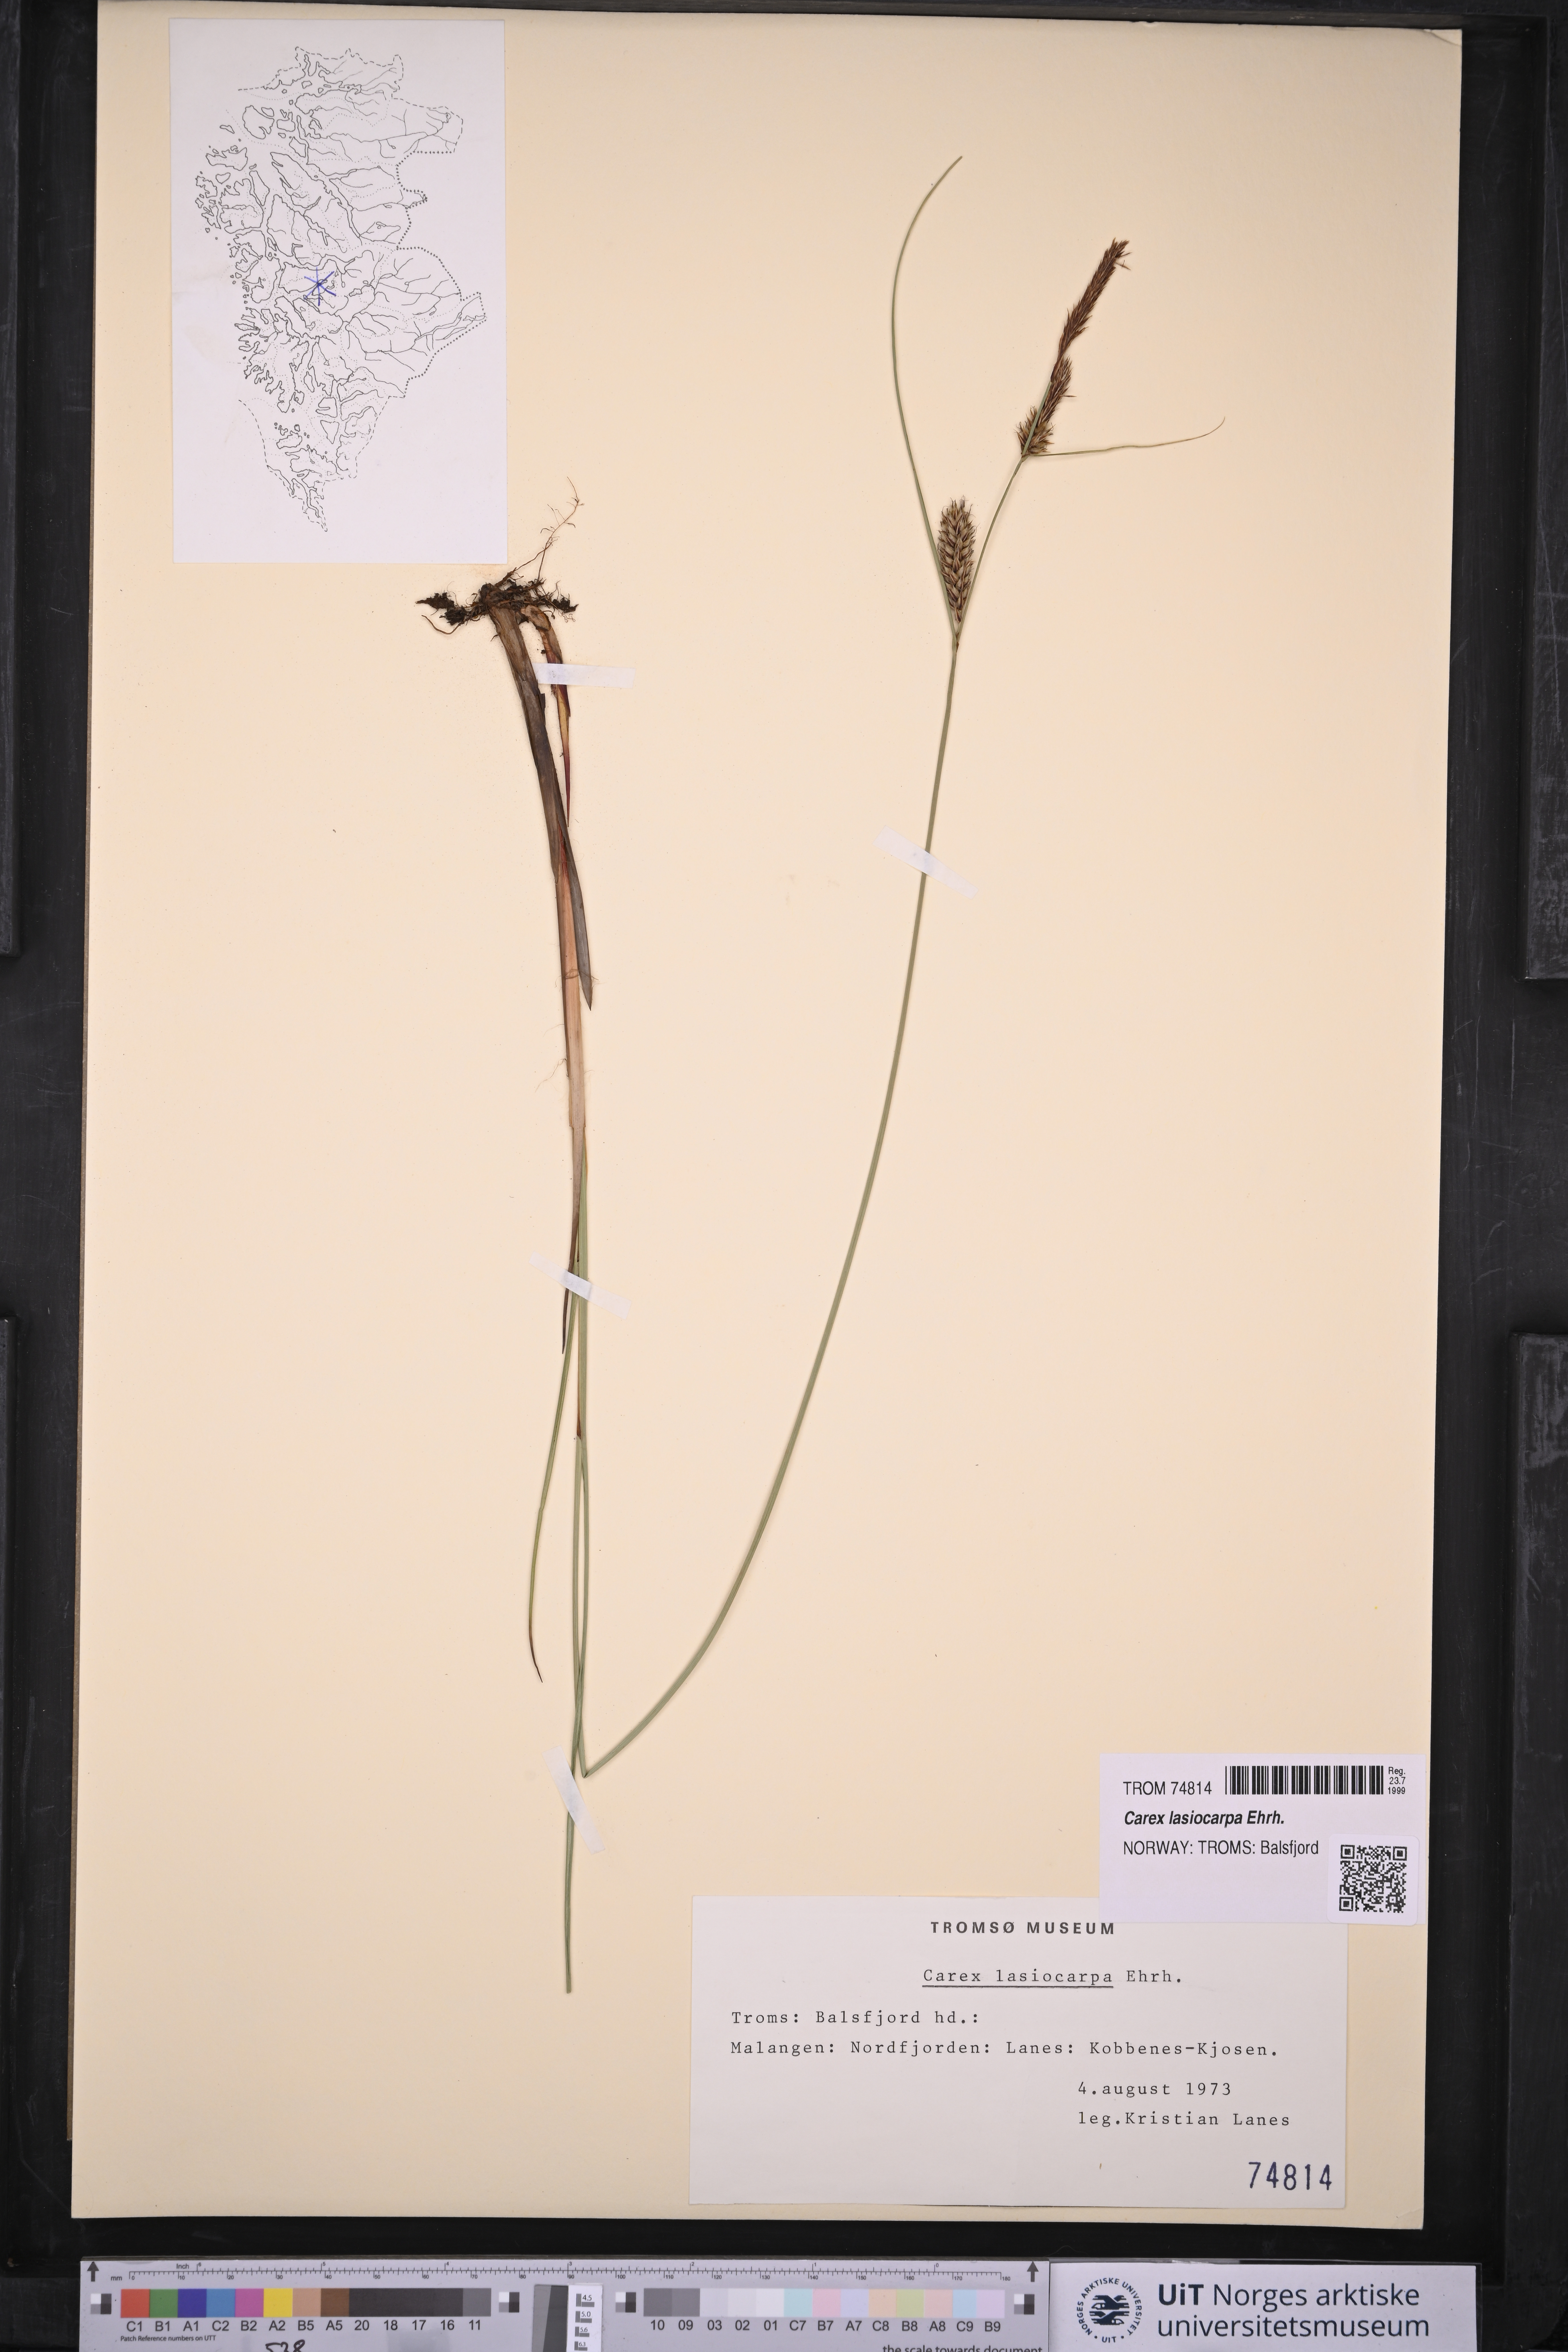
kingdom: Plantae
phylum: Tracheophyta
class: Liliopsida
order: Poales
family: Cyperaceae
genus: Carex
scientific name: Carex lasiocarpa
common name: Slender sedge
